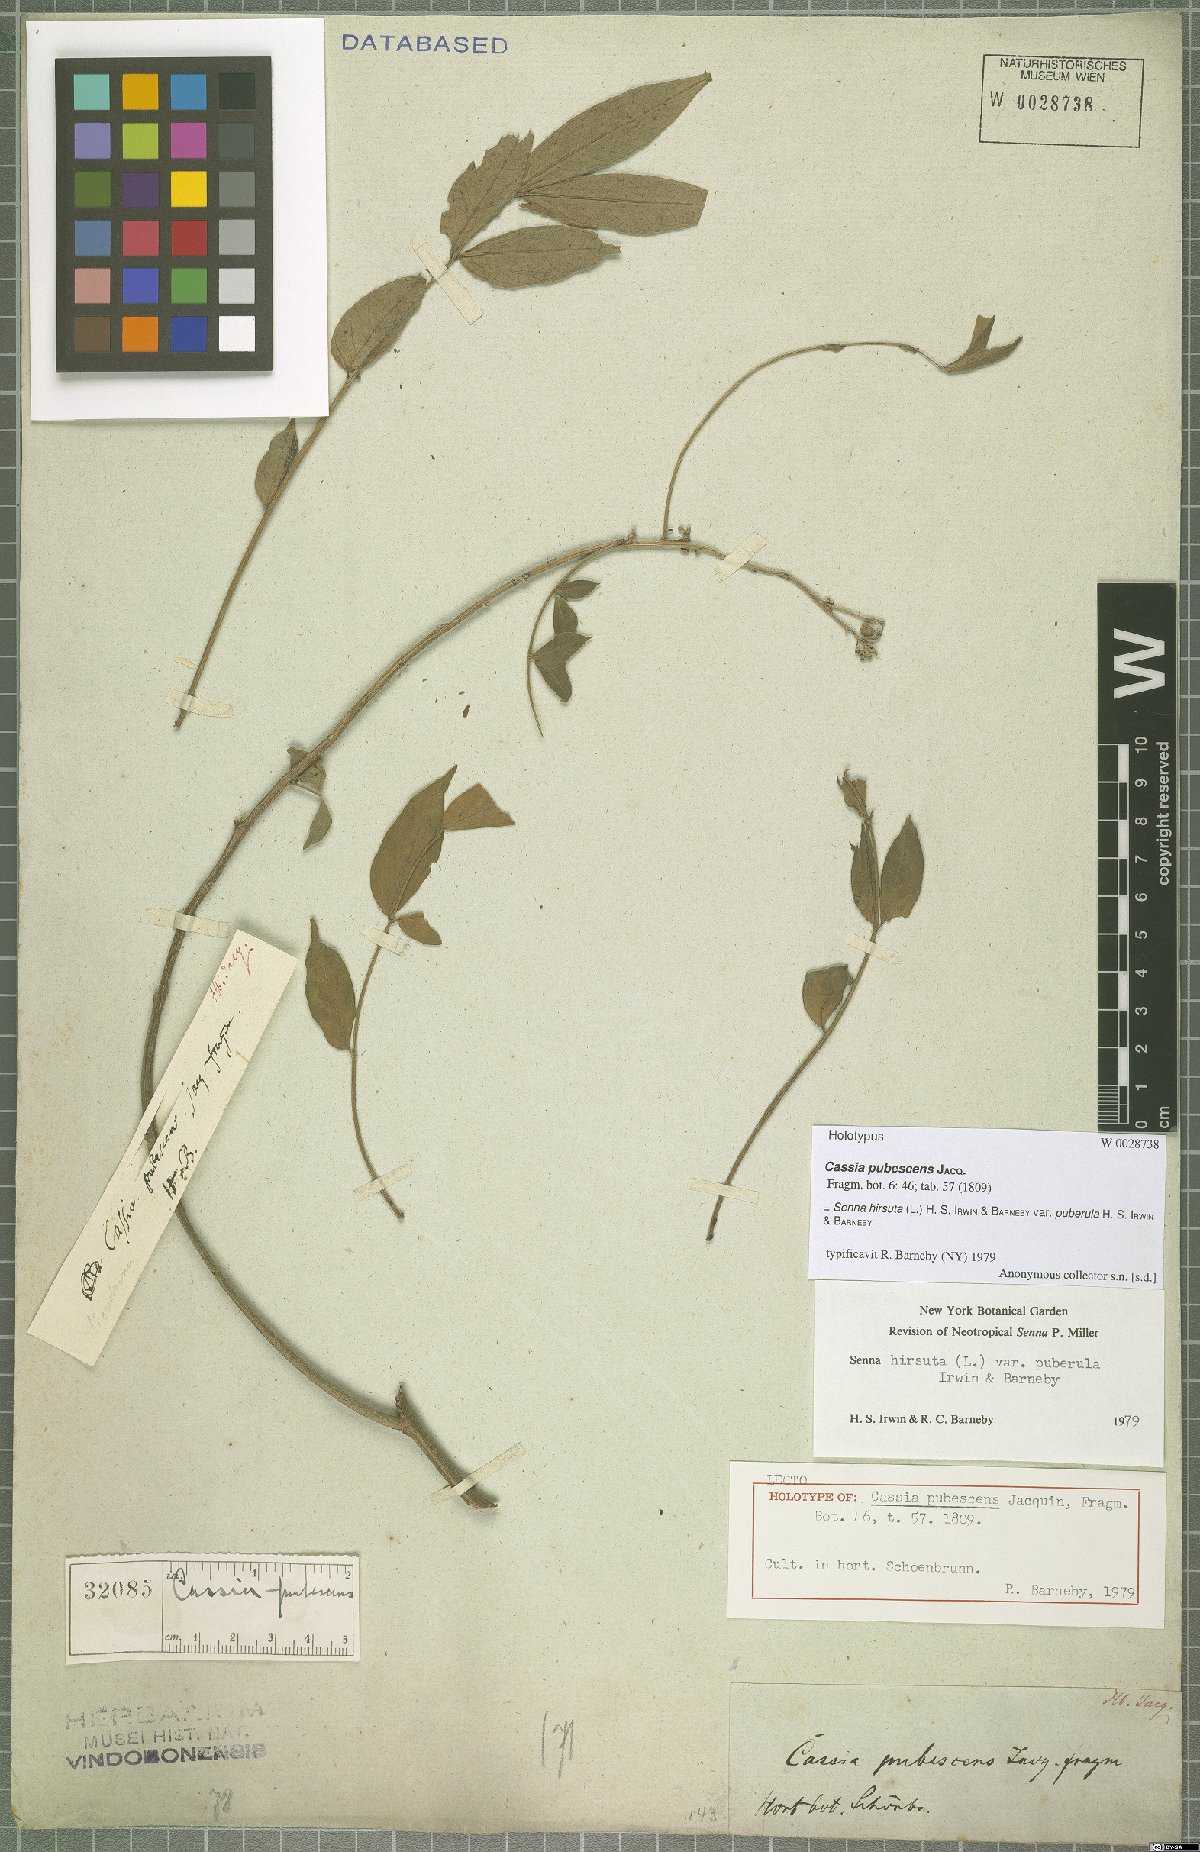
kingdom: Plantae
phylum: Tracheophyta
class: Magnoliopsida
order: Fabales
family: Fabaceae
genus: Senna
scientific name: Senna hirsuta
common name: Woolly senna
